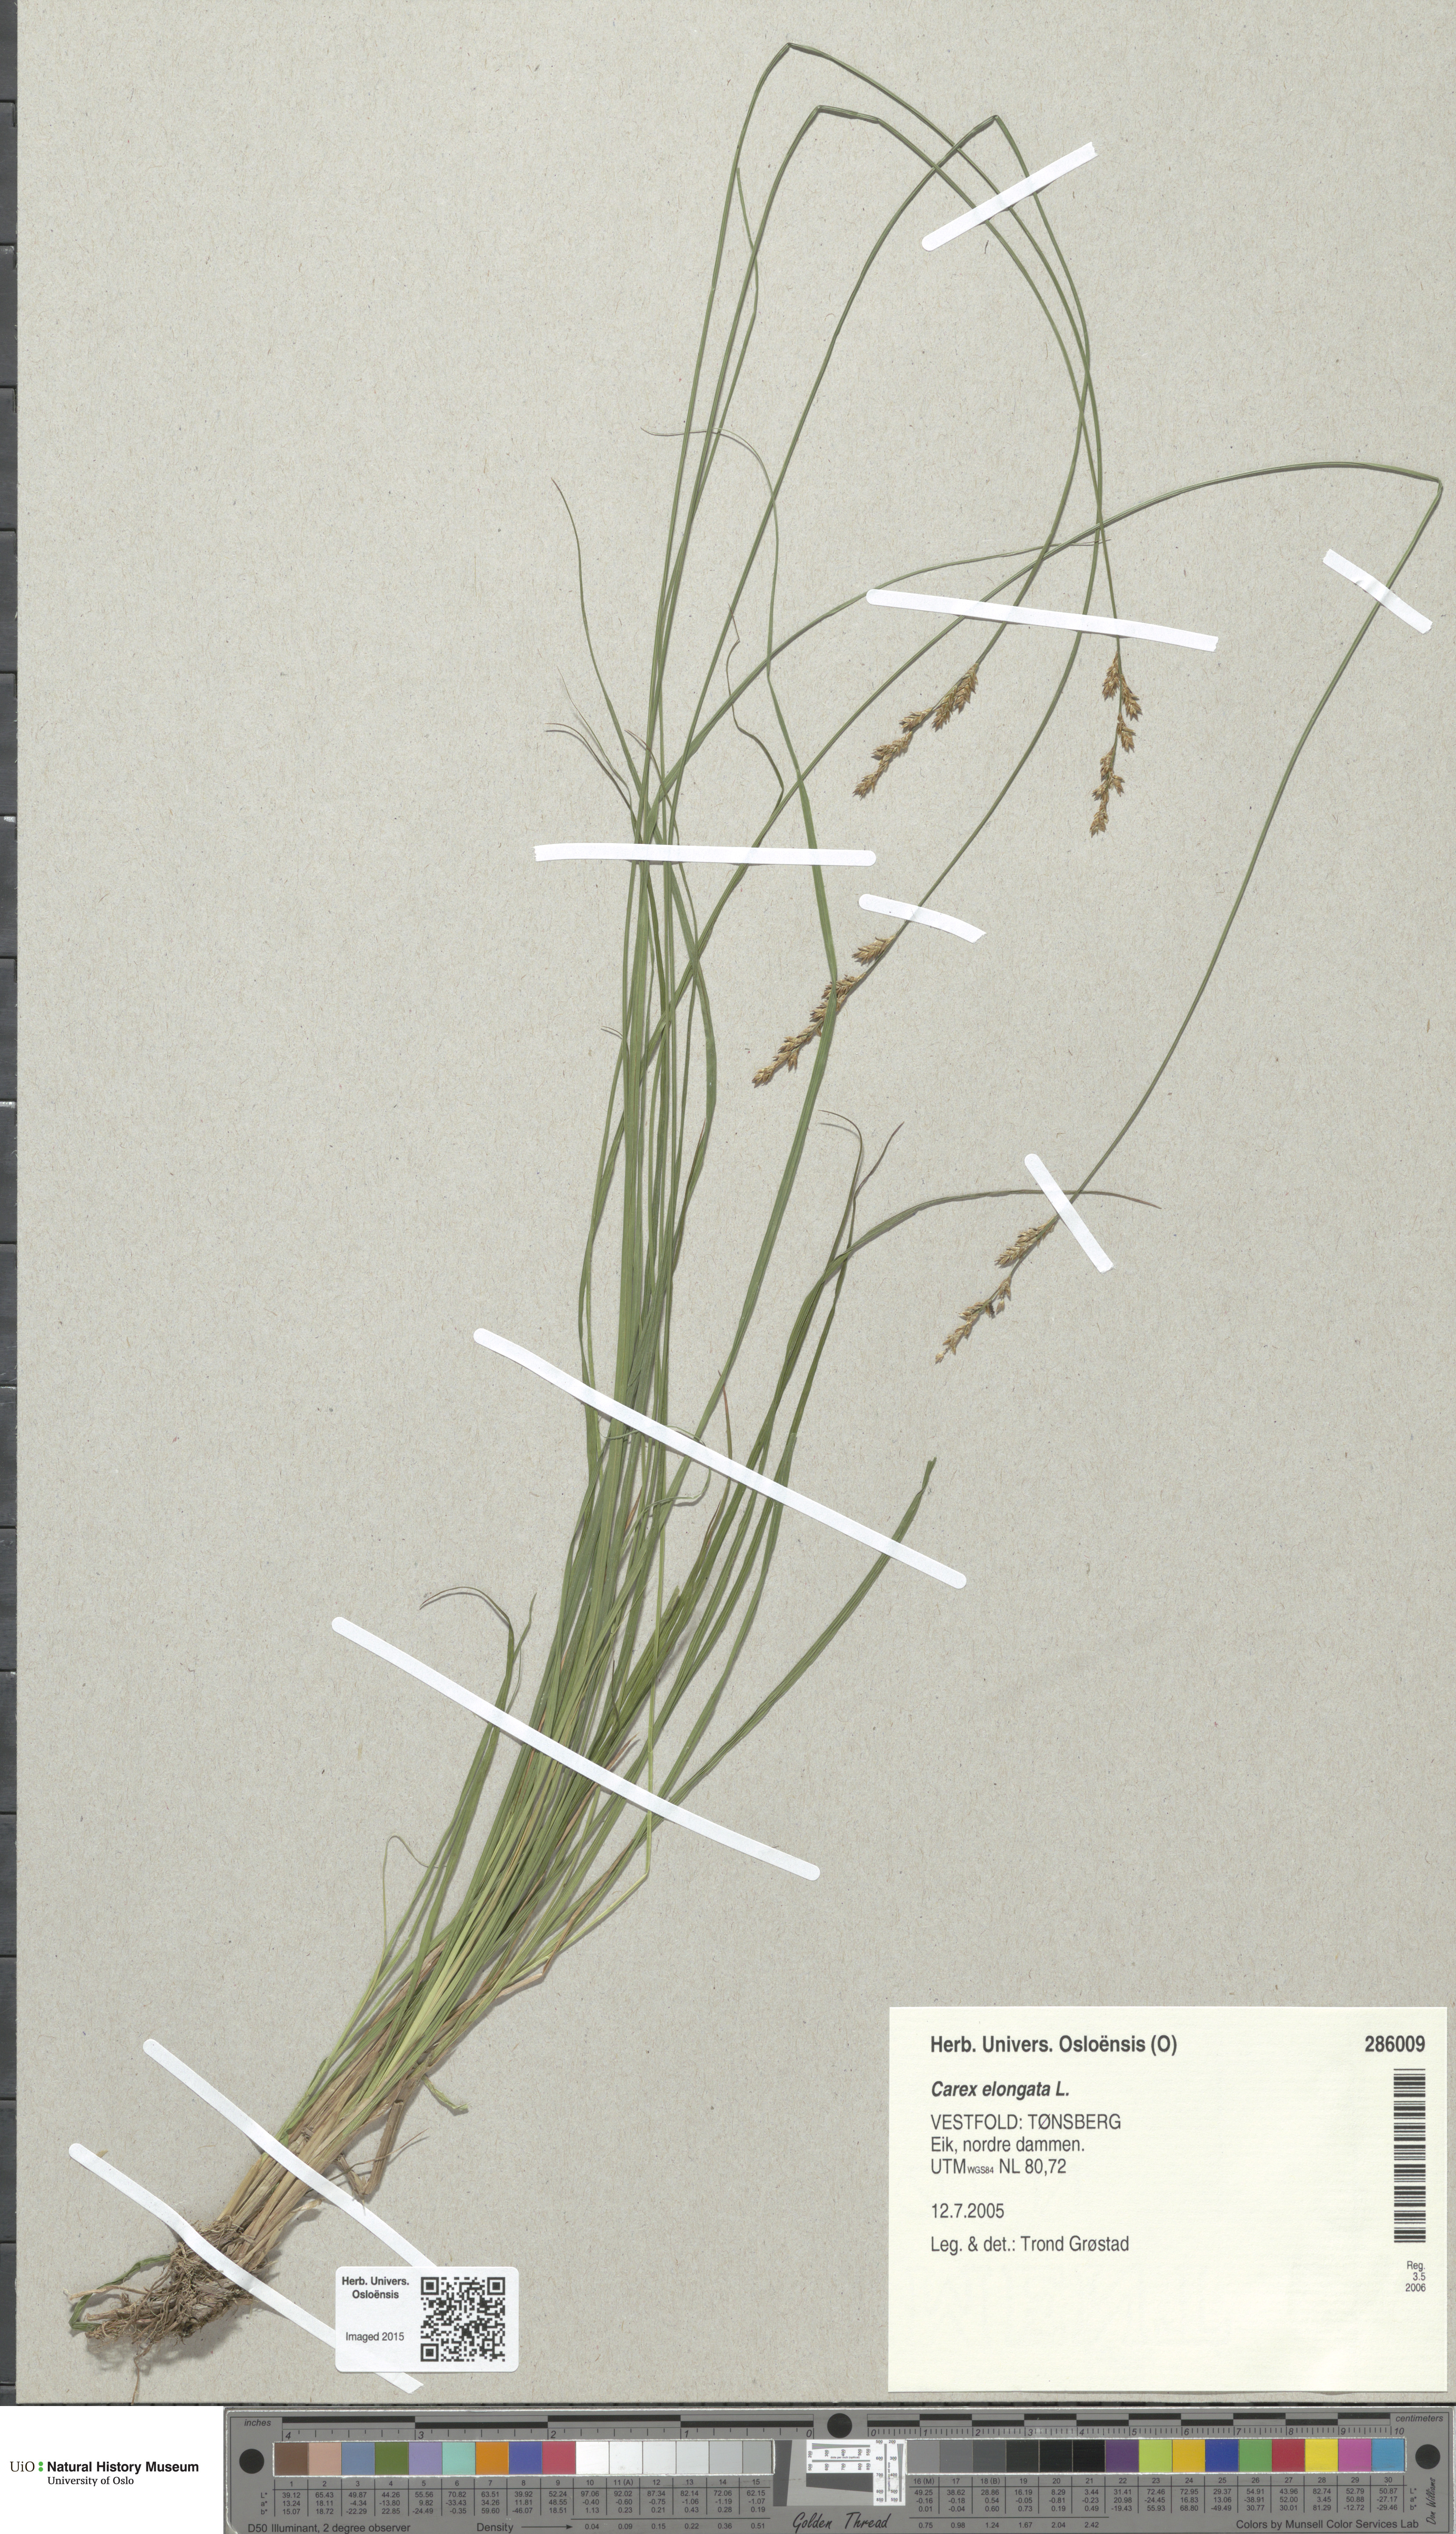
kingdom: Plantae
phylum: Tracheophyta
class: Liliopsida
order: Poales
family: Cyperaceae
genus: Carex
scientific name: Carex elongata
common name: Elongated sedge
